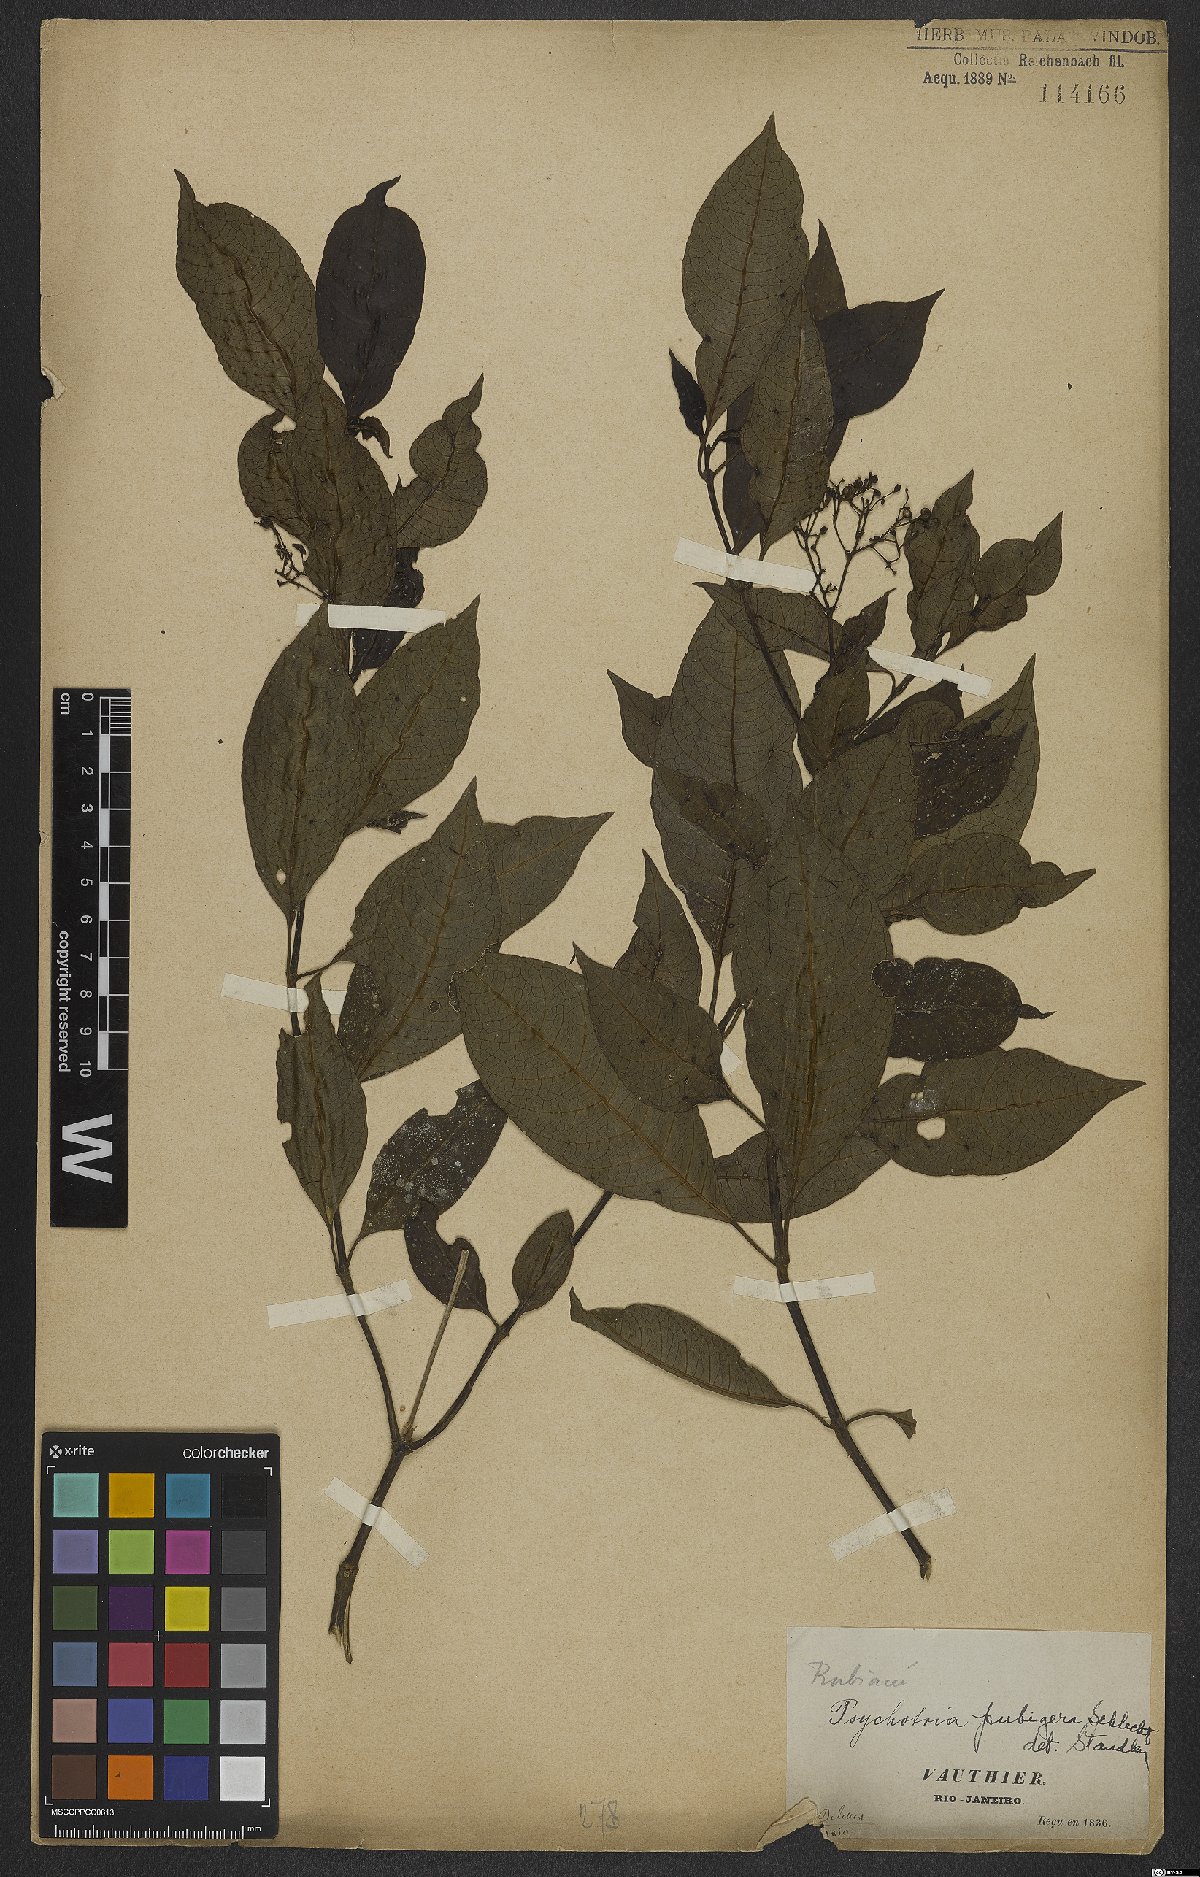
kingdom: Plantae
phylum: Tracheophyta
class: Magnoliopsida
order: Gentianales
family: Rubiaceae
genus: Psychotria
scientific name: Psychotria nemorosa
